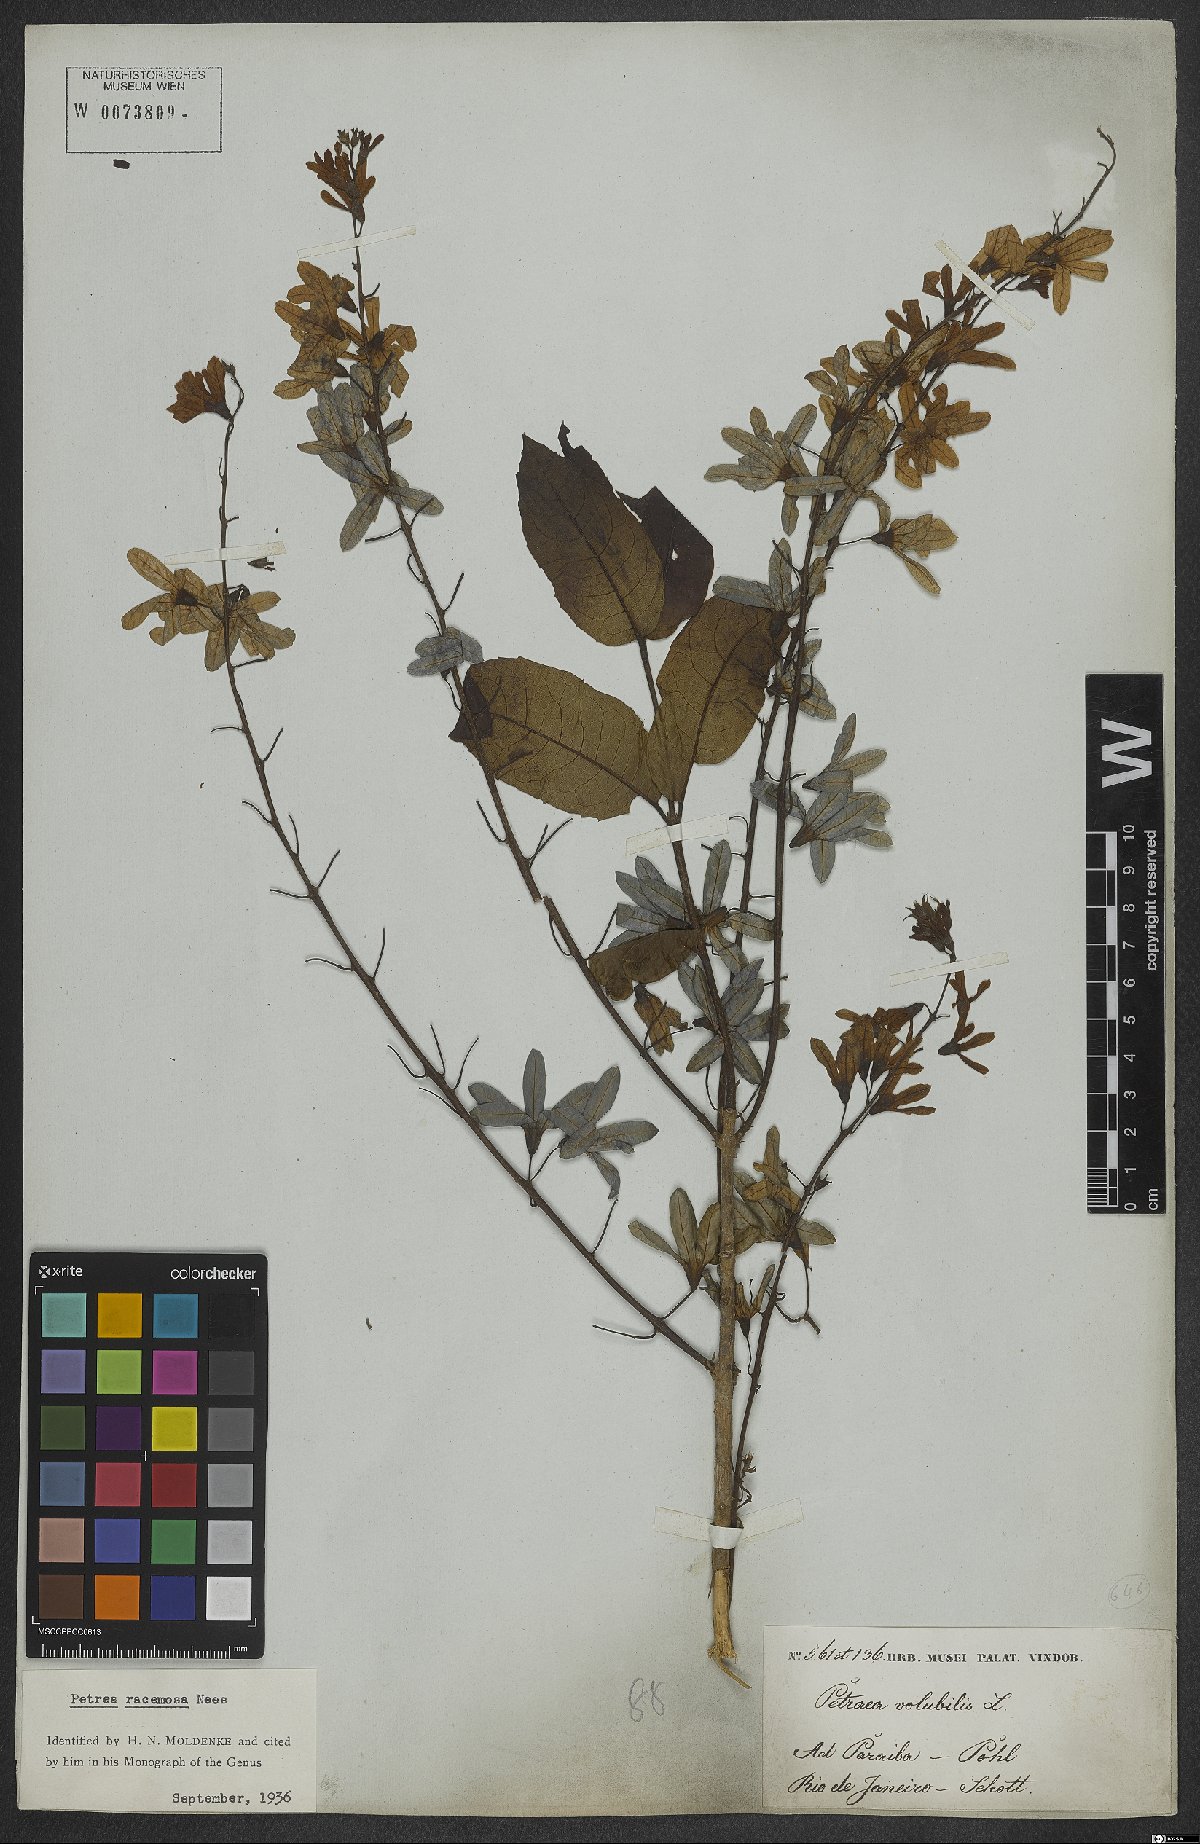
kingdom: Plantae
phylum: Tracheophyta
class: Magnoliopsida
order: Lamiales
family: Verbenaceae
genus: Petrea
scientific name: Petrea volubilis
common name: Queen's-wreath
